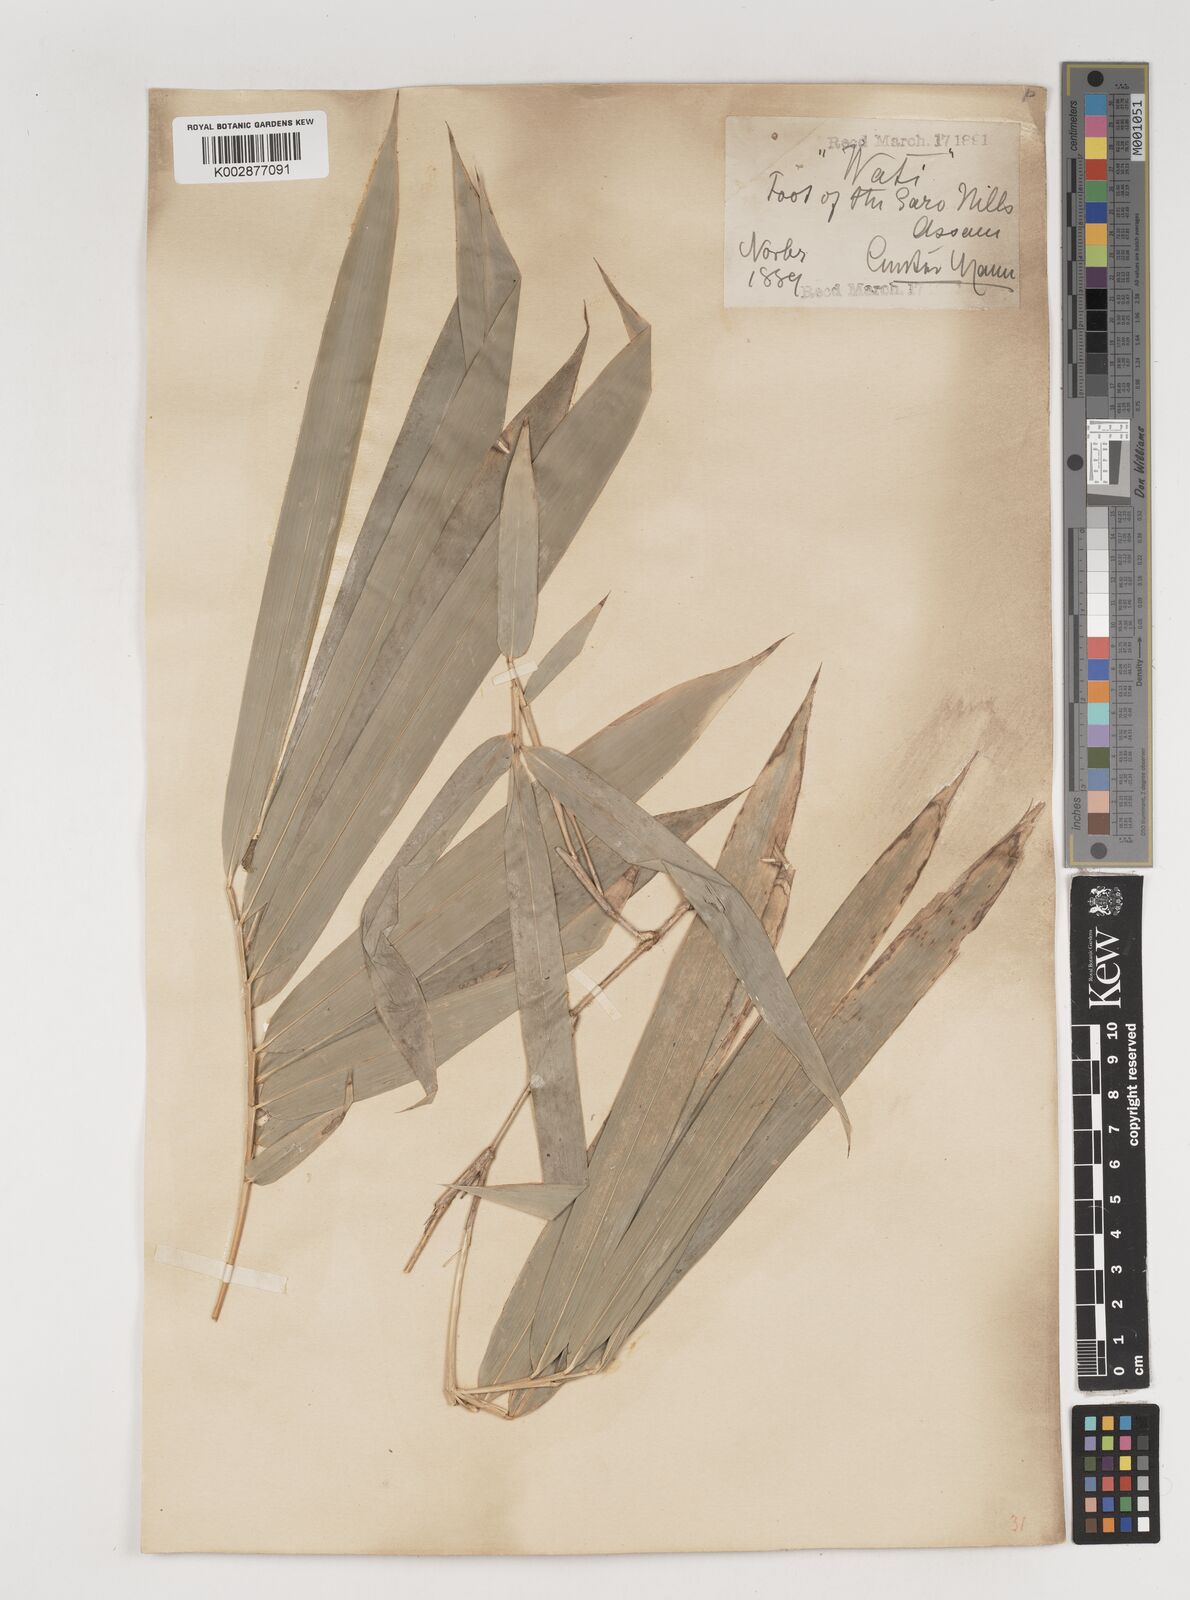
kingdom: Plantae
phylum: Tracheophyta
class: Liliopsida
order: Poales
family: Poaceae
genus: Bambusa
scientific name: Bambusa
